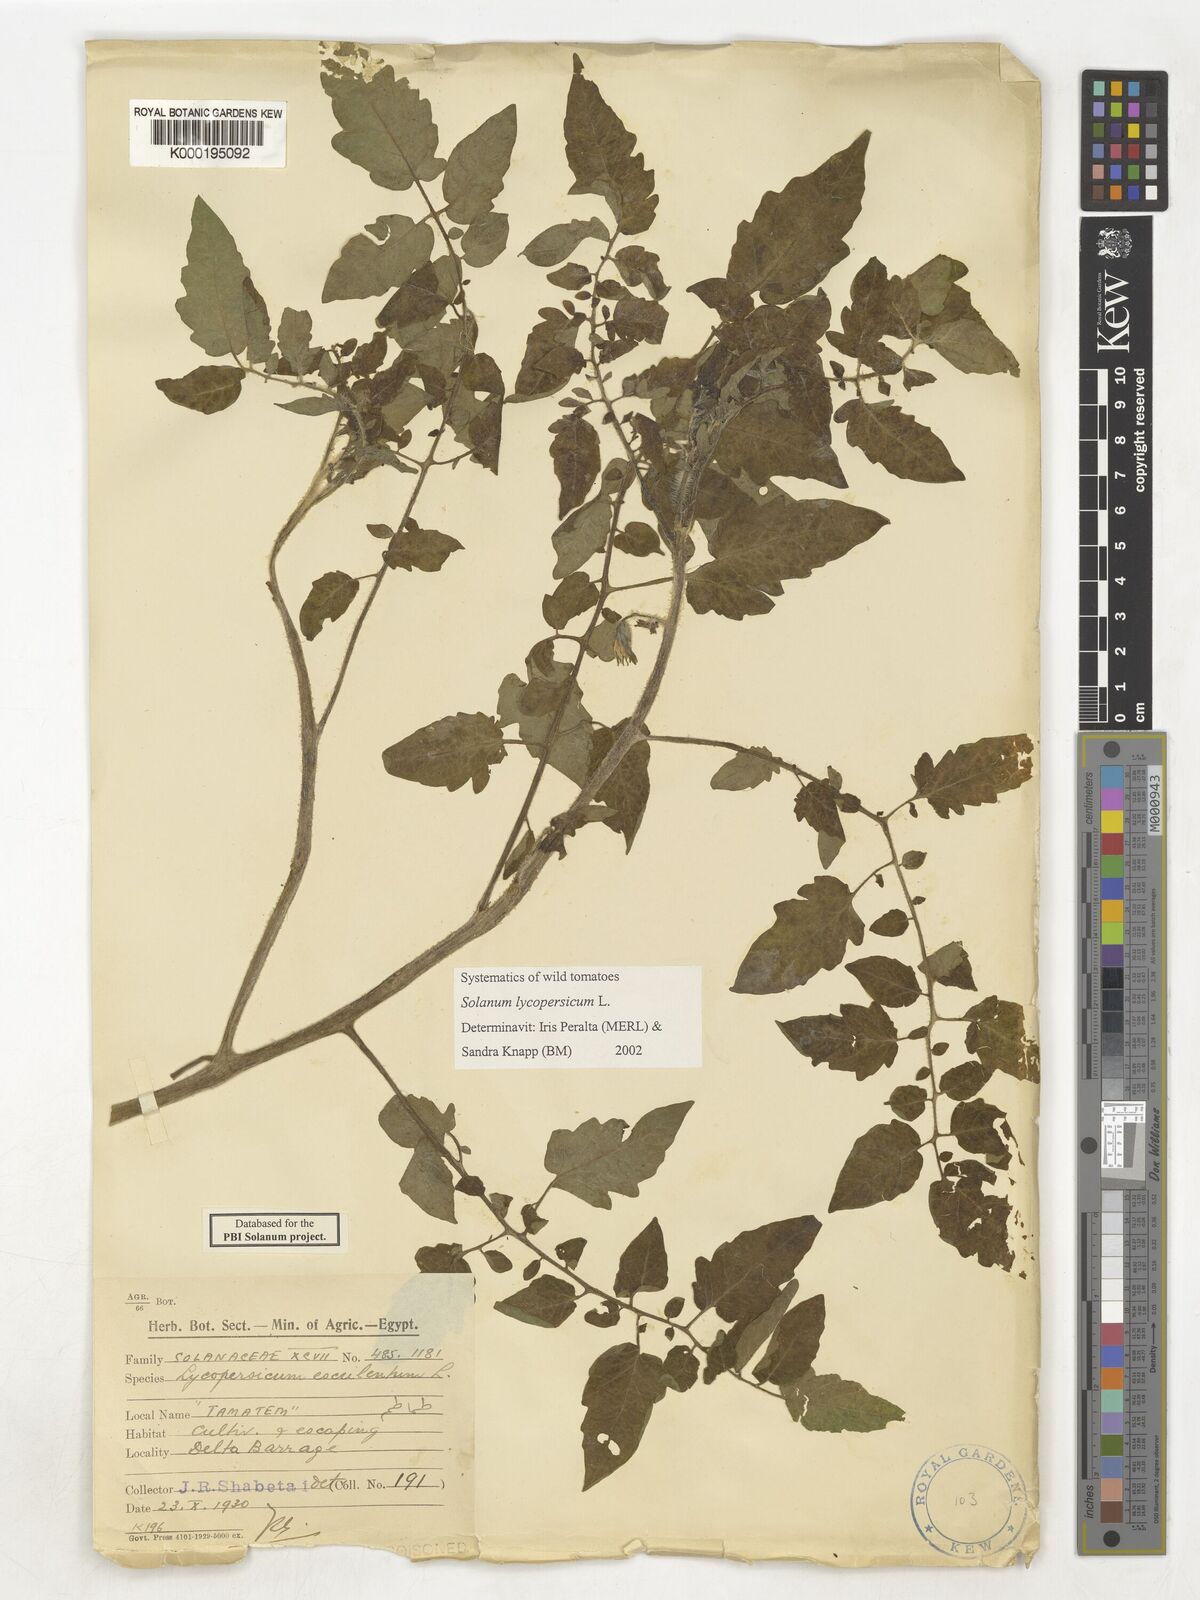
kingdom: Plantae
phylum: Tracheophyta
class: Magnoliopsida
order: Solanales
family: Solanaceae
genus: Solanum
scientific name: Solanum lycopersicum
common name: Garden tomato
